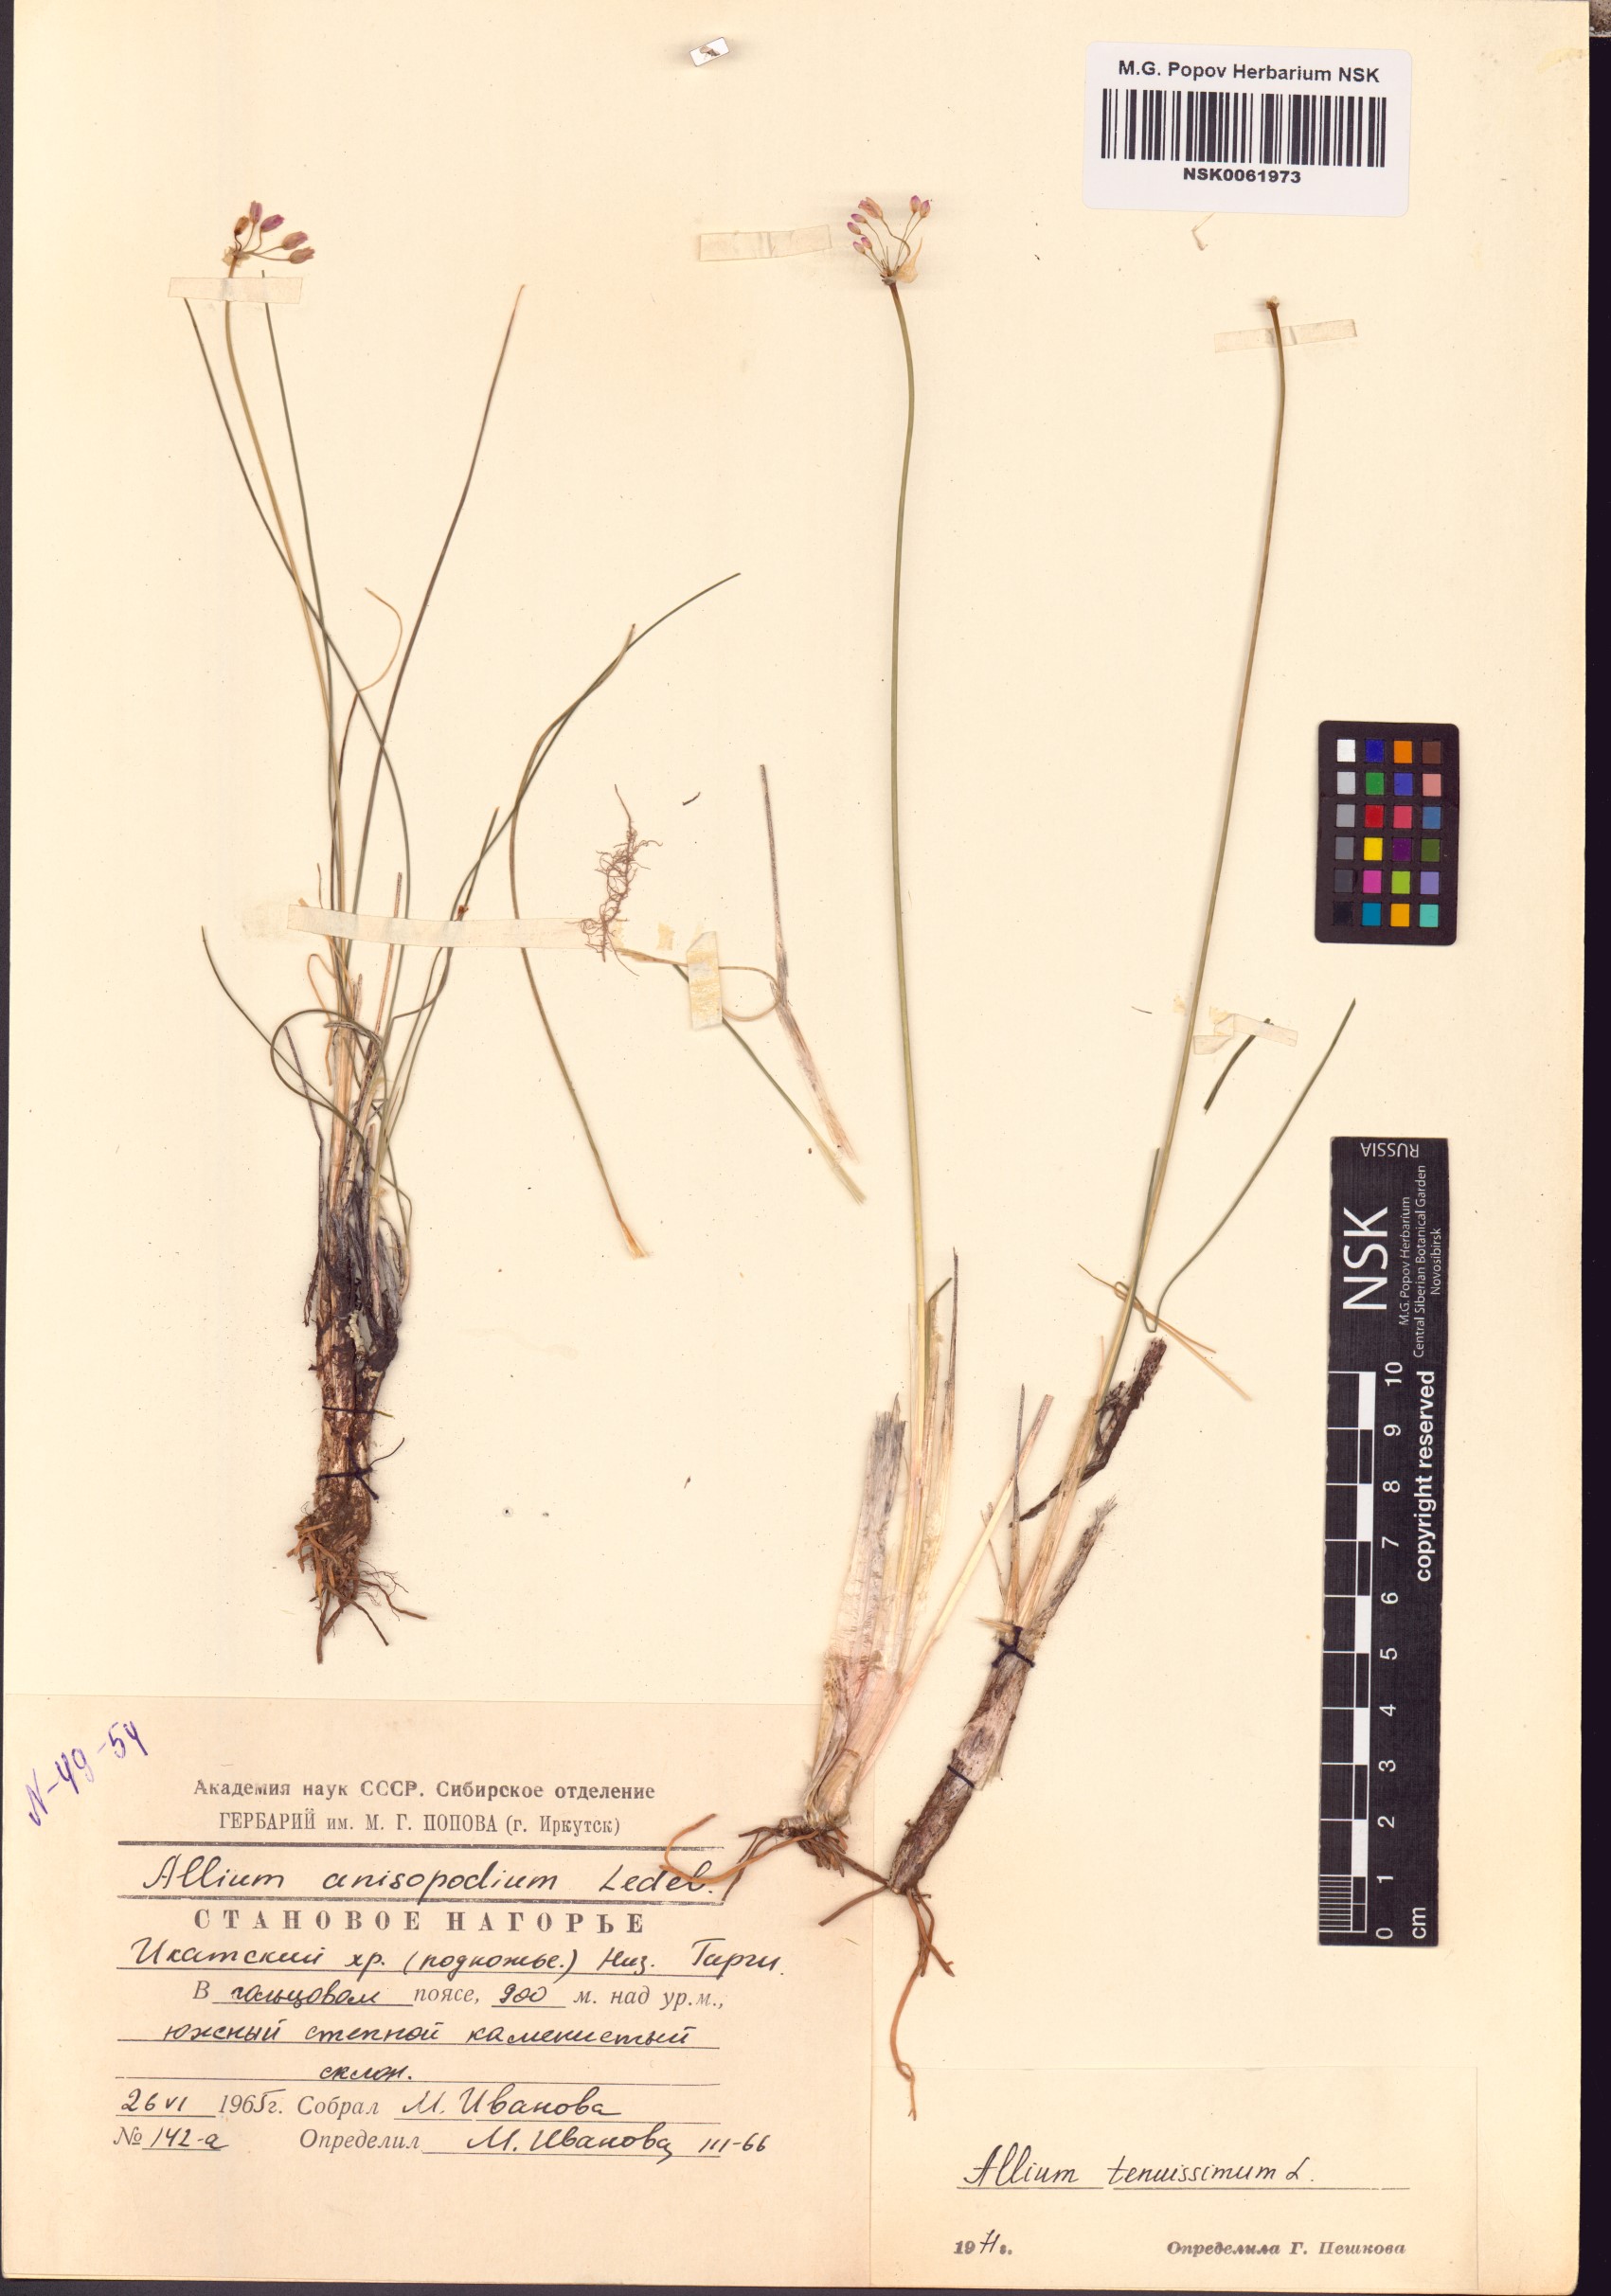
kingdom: Plantae
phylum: Tracheophyta
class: Liliopsida
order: Asparagales
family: Amaryllidaceae
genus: Allium
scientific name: Allium tenuissimum
